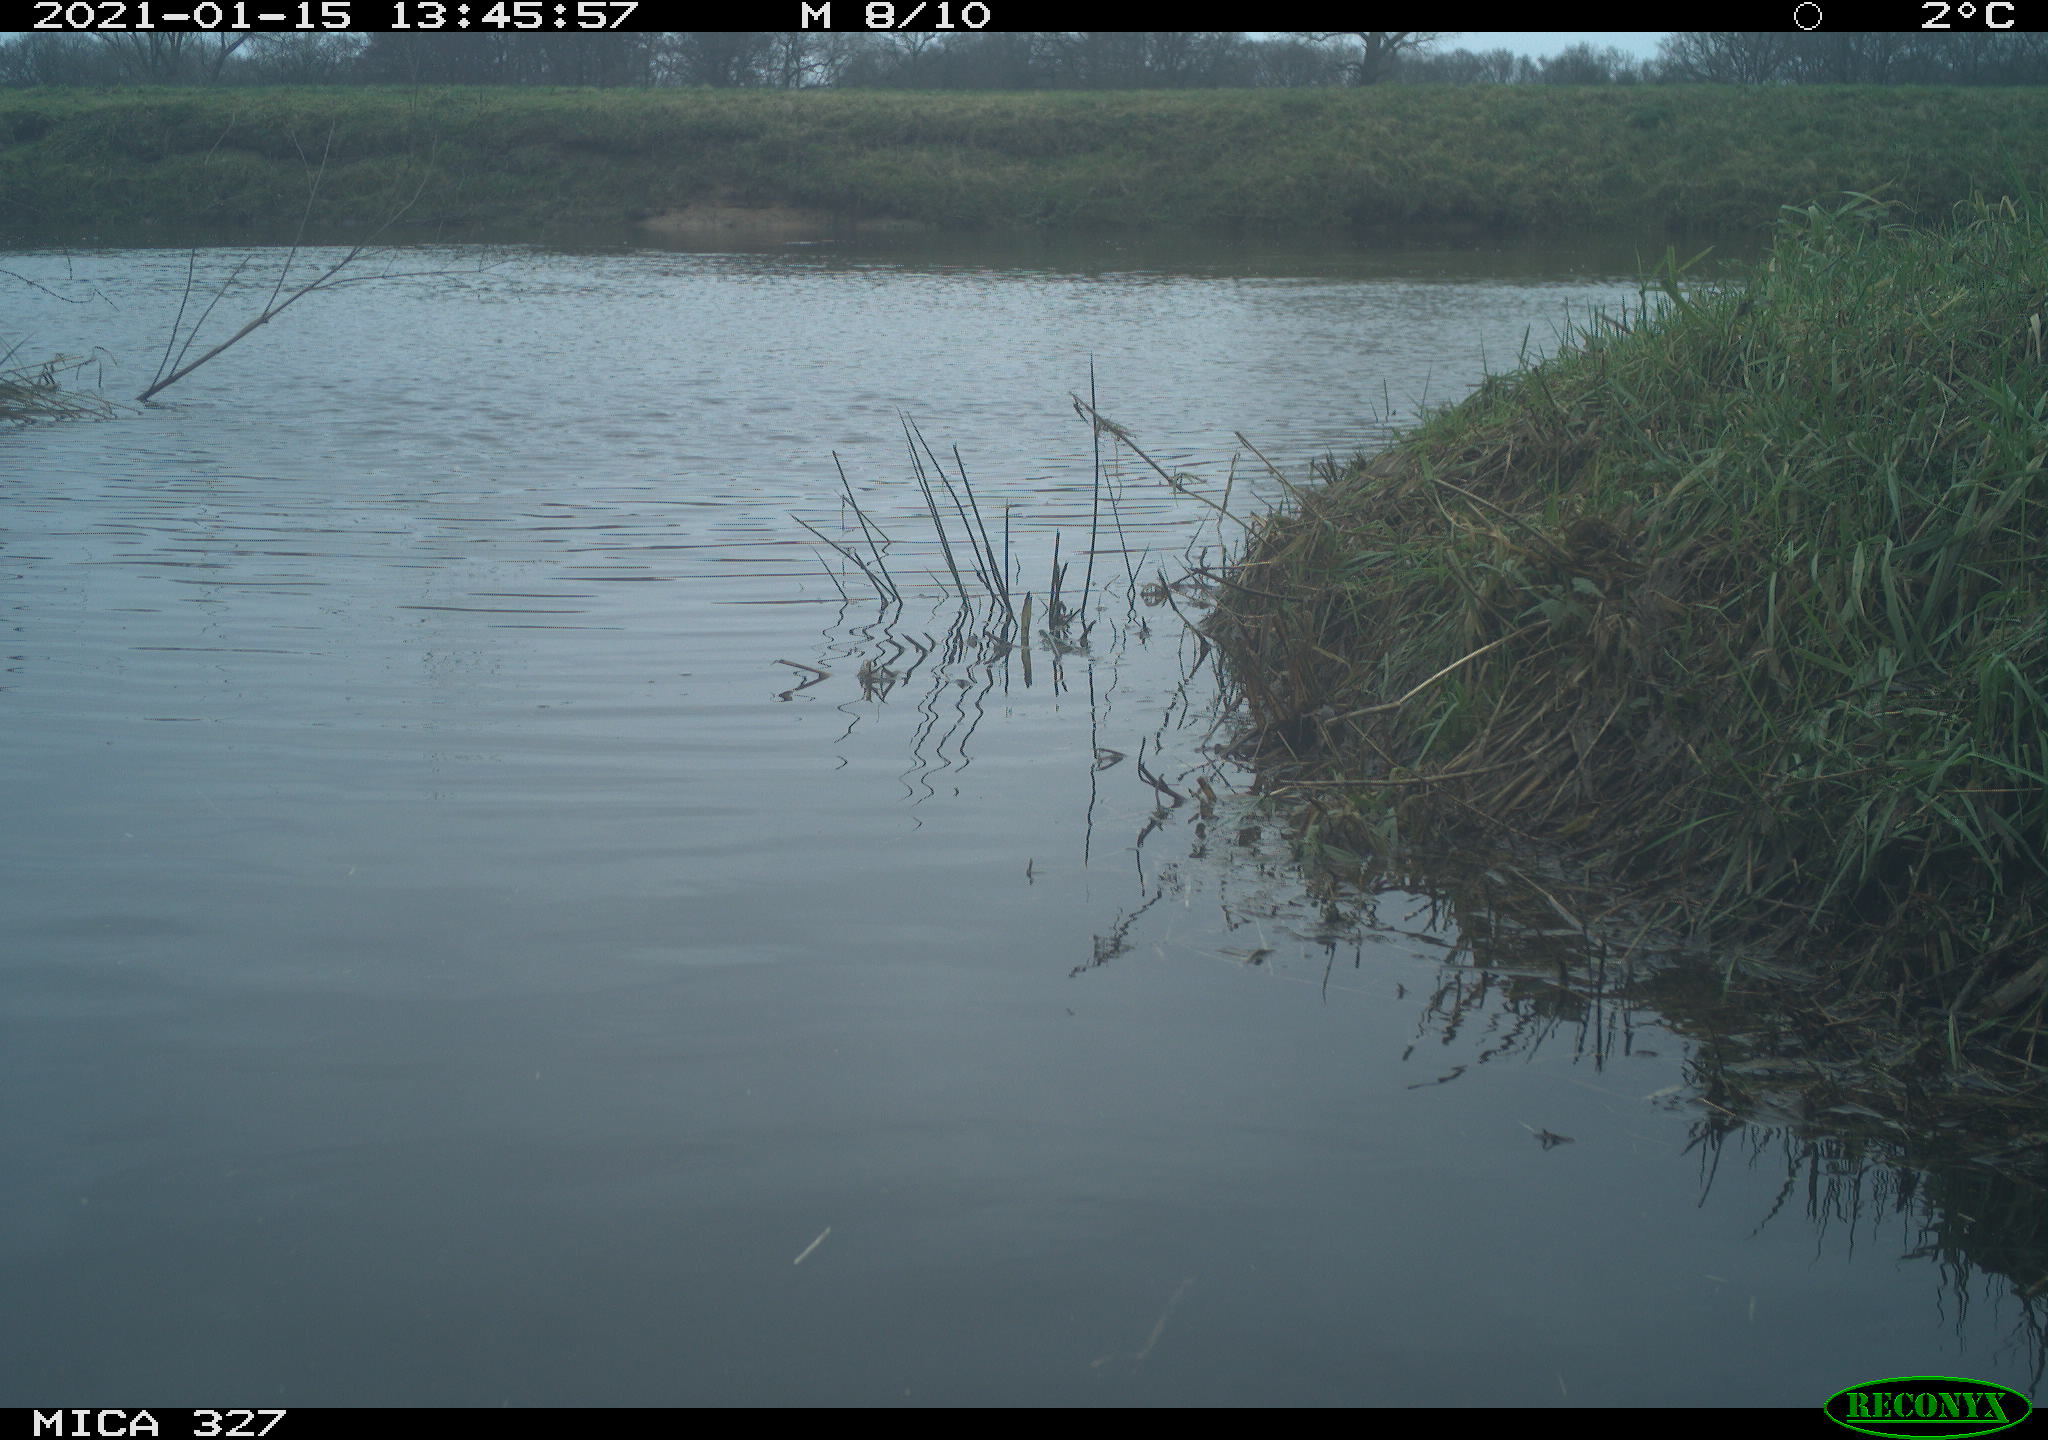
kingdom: Animalia
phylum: Chordata
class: Aves
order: Pelecaniformes
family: Ardeidae
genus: Ardea
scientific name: Ardea alba
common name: Great egret
